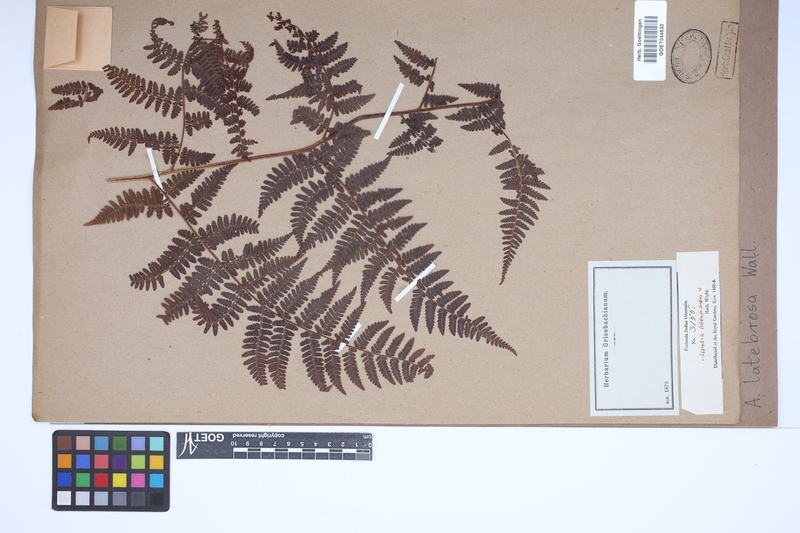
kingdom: Plantae
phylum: Tracheophyta
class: Polypodiopsida
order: Cyatheales
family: Cyatheaceae
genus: Alsophila
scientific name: Alsophila nilgirensis
